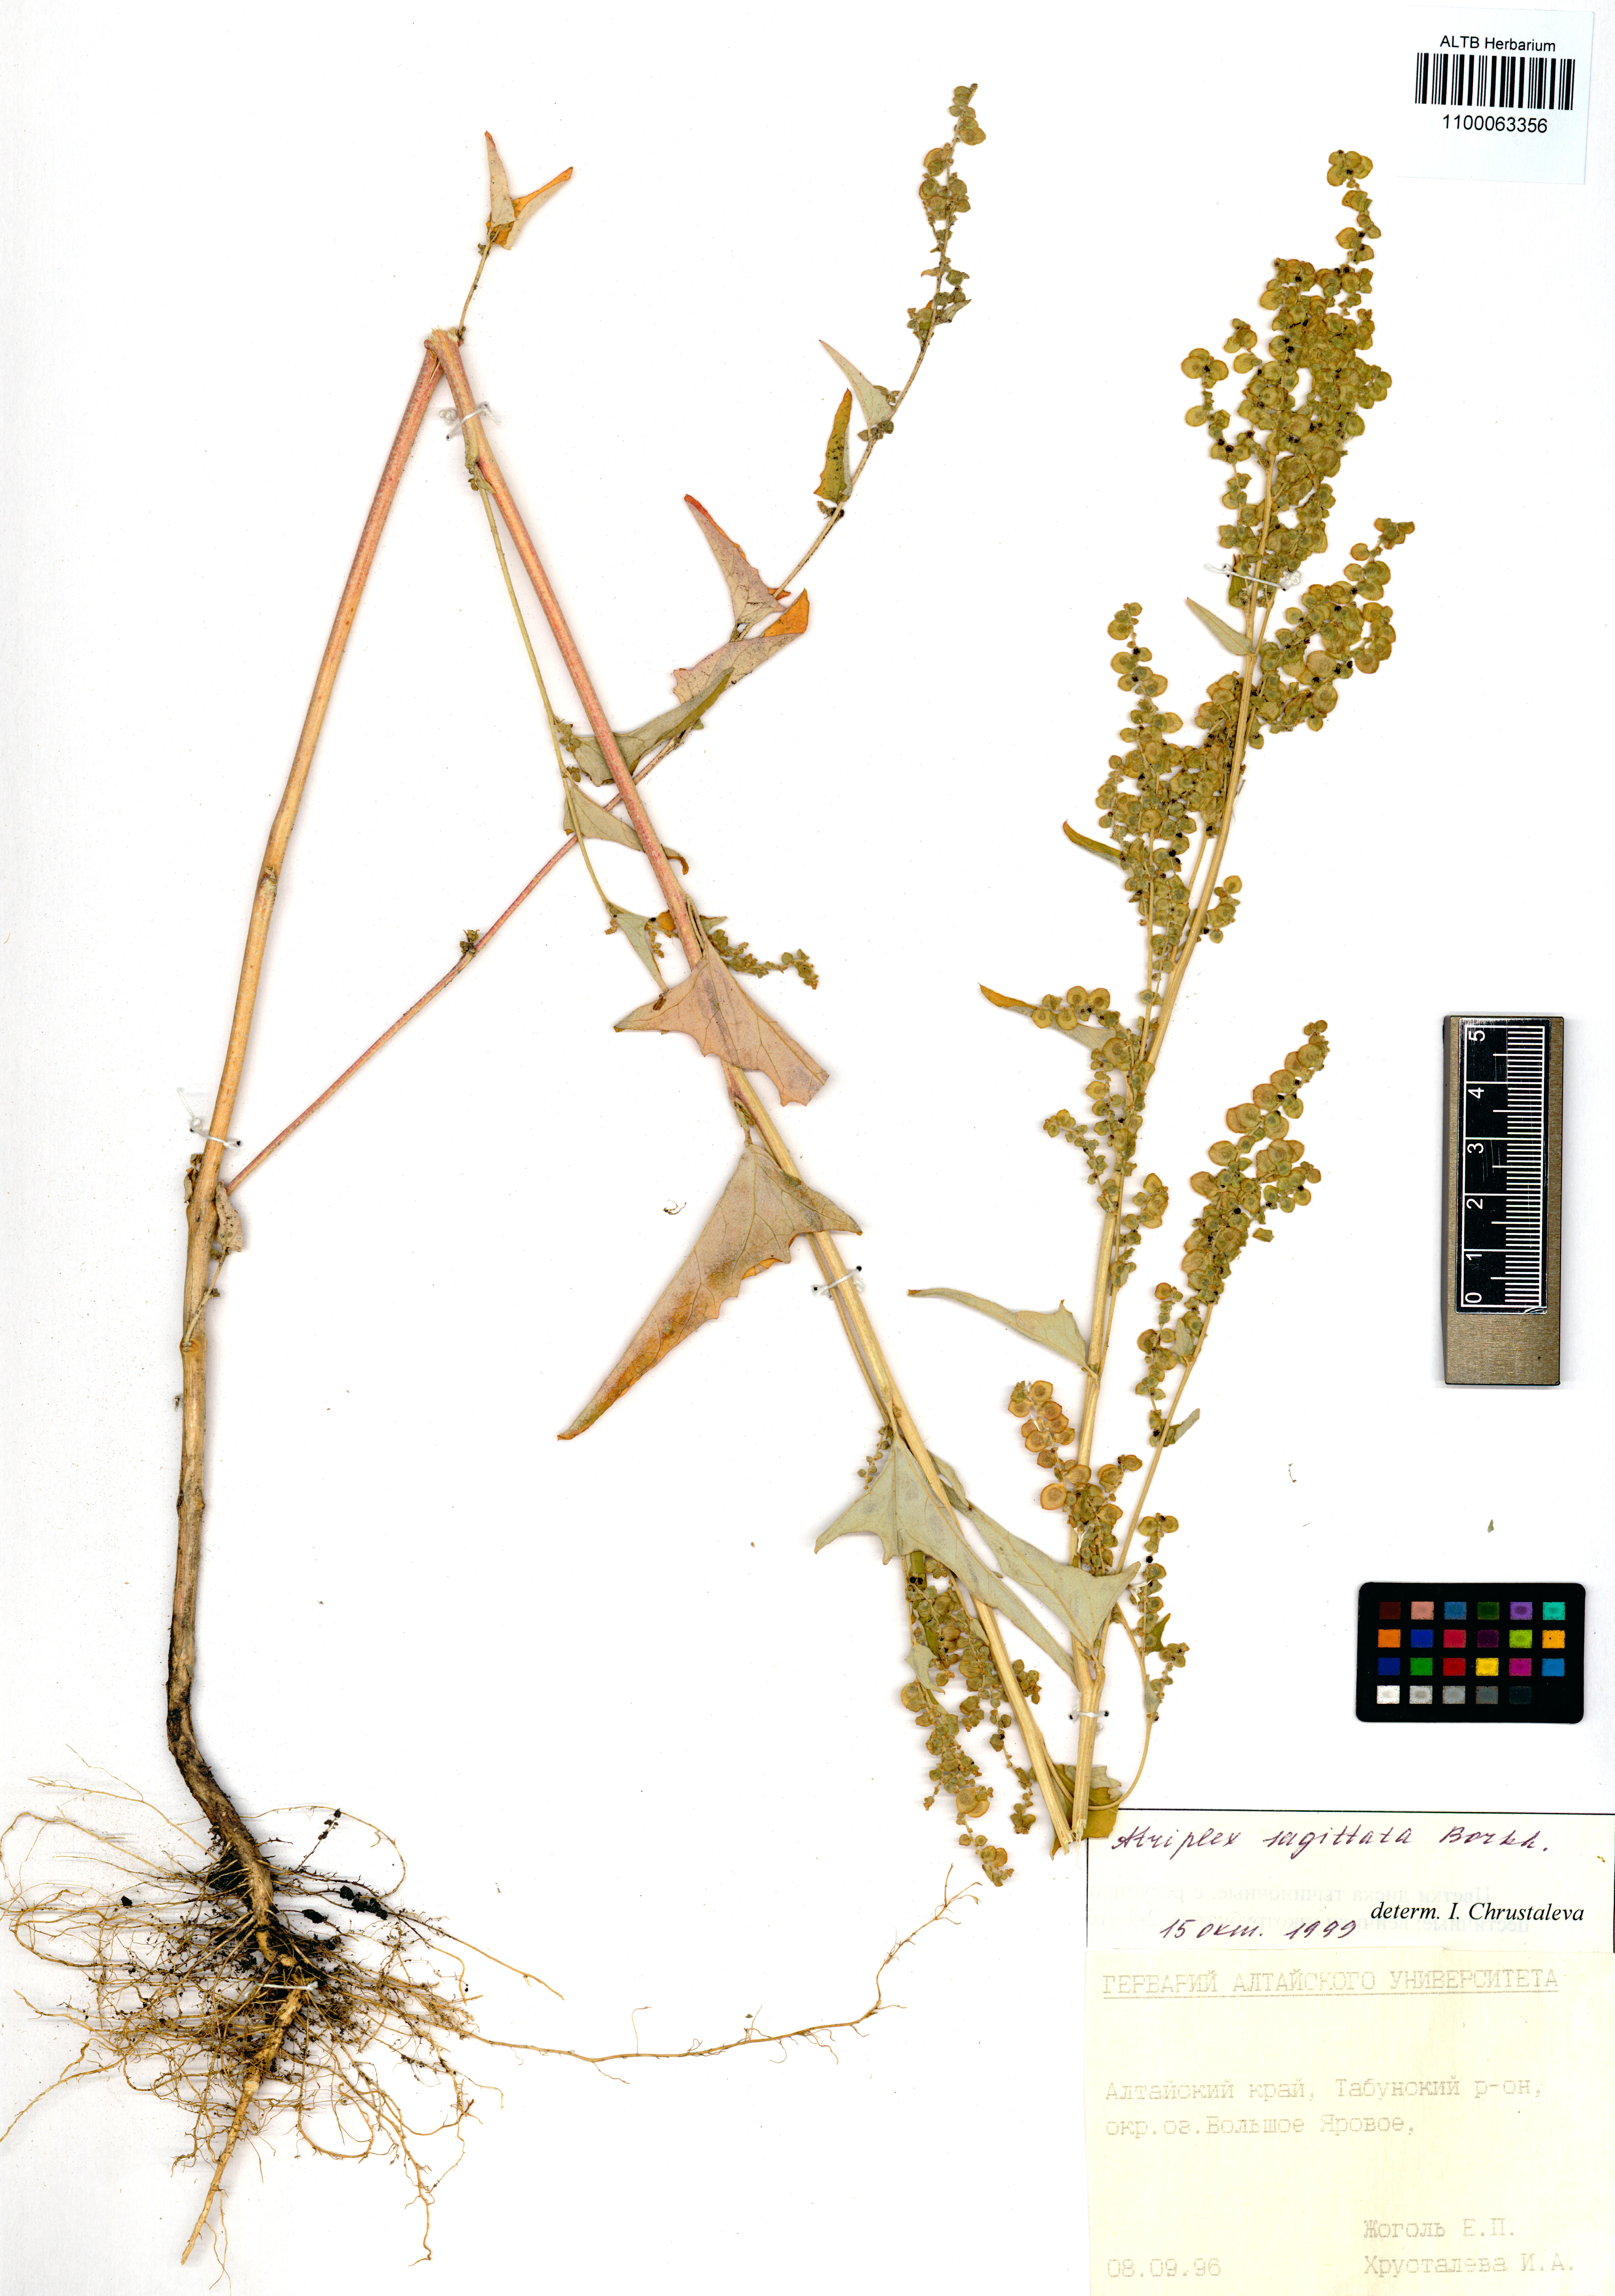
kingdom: Plantae
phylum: Tracheophyta
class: Magnoliopsida
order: Caryophyllales
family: Amaranthaceae
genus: Atriplex
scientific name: Atriplex sagittata
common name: Purple orache
